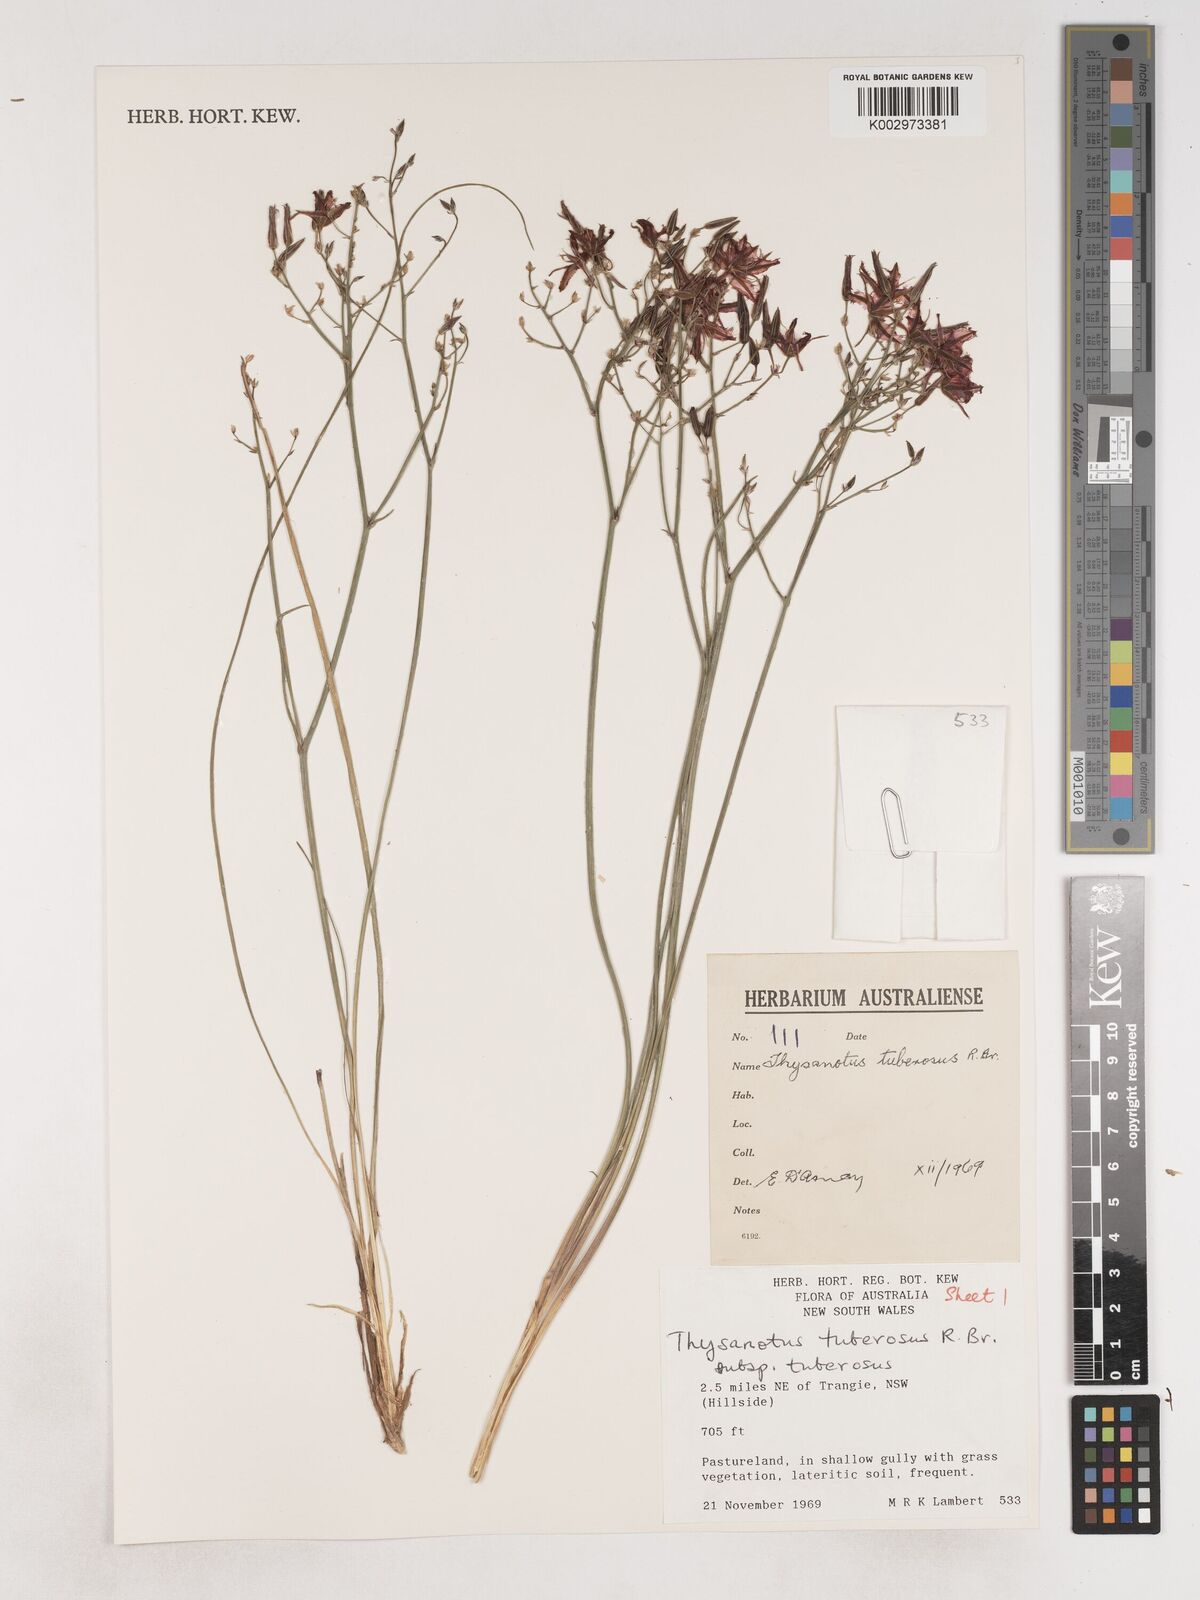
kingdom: Plantae
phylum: Tracheophyta
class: Liliopsida
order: Asparagales
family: Asparagaceae
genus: Thysanotus
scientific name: Thysanotus tuberosus
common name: Common fringed-lily
